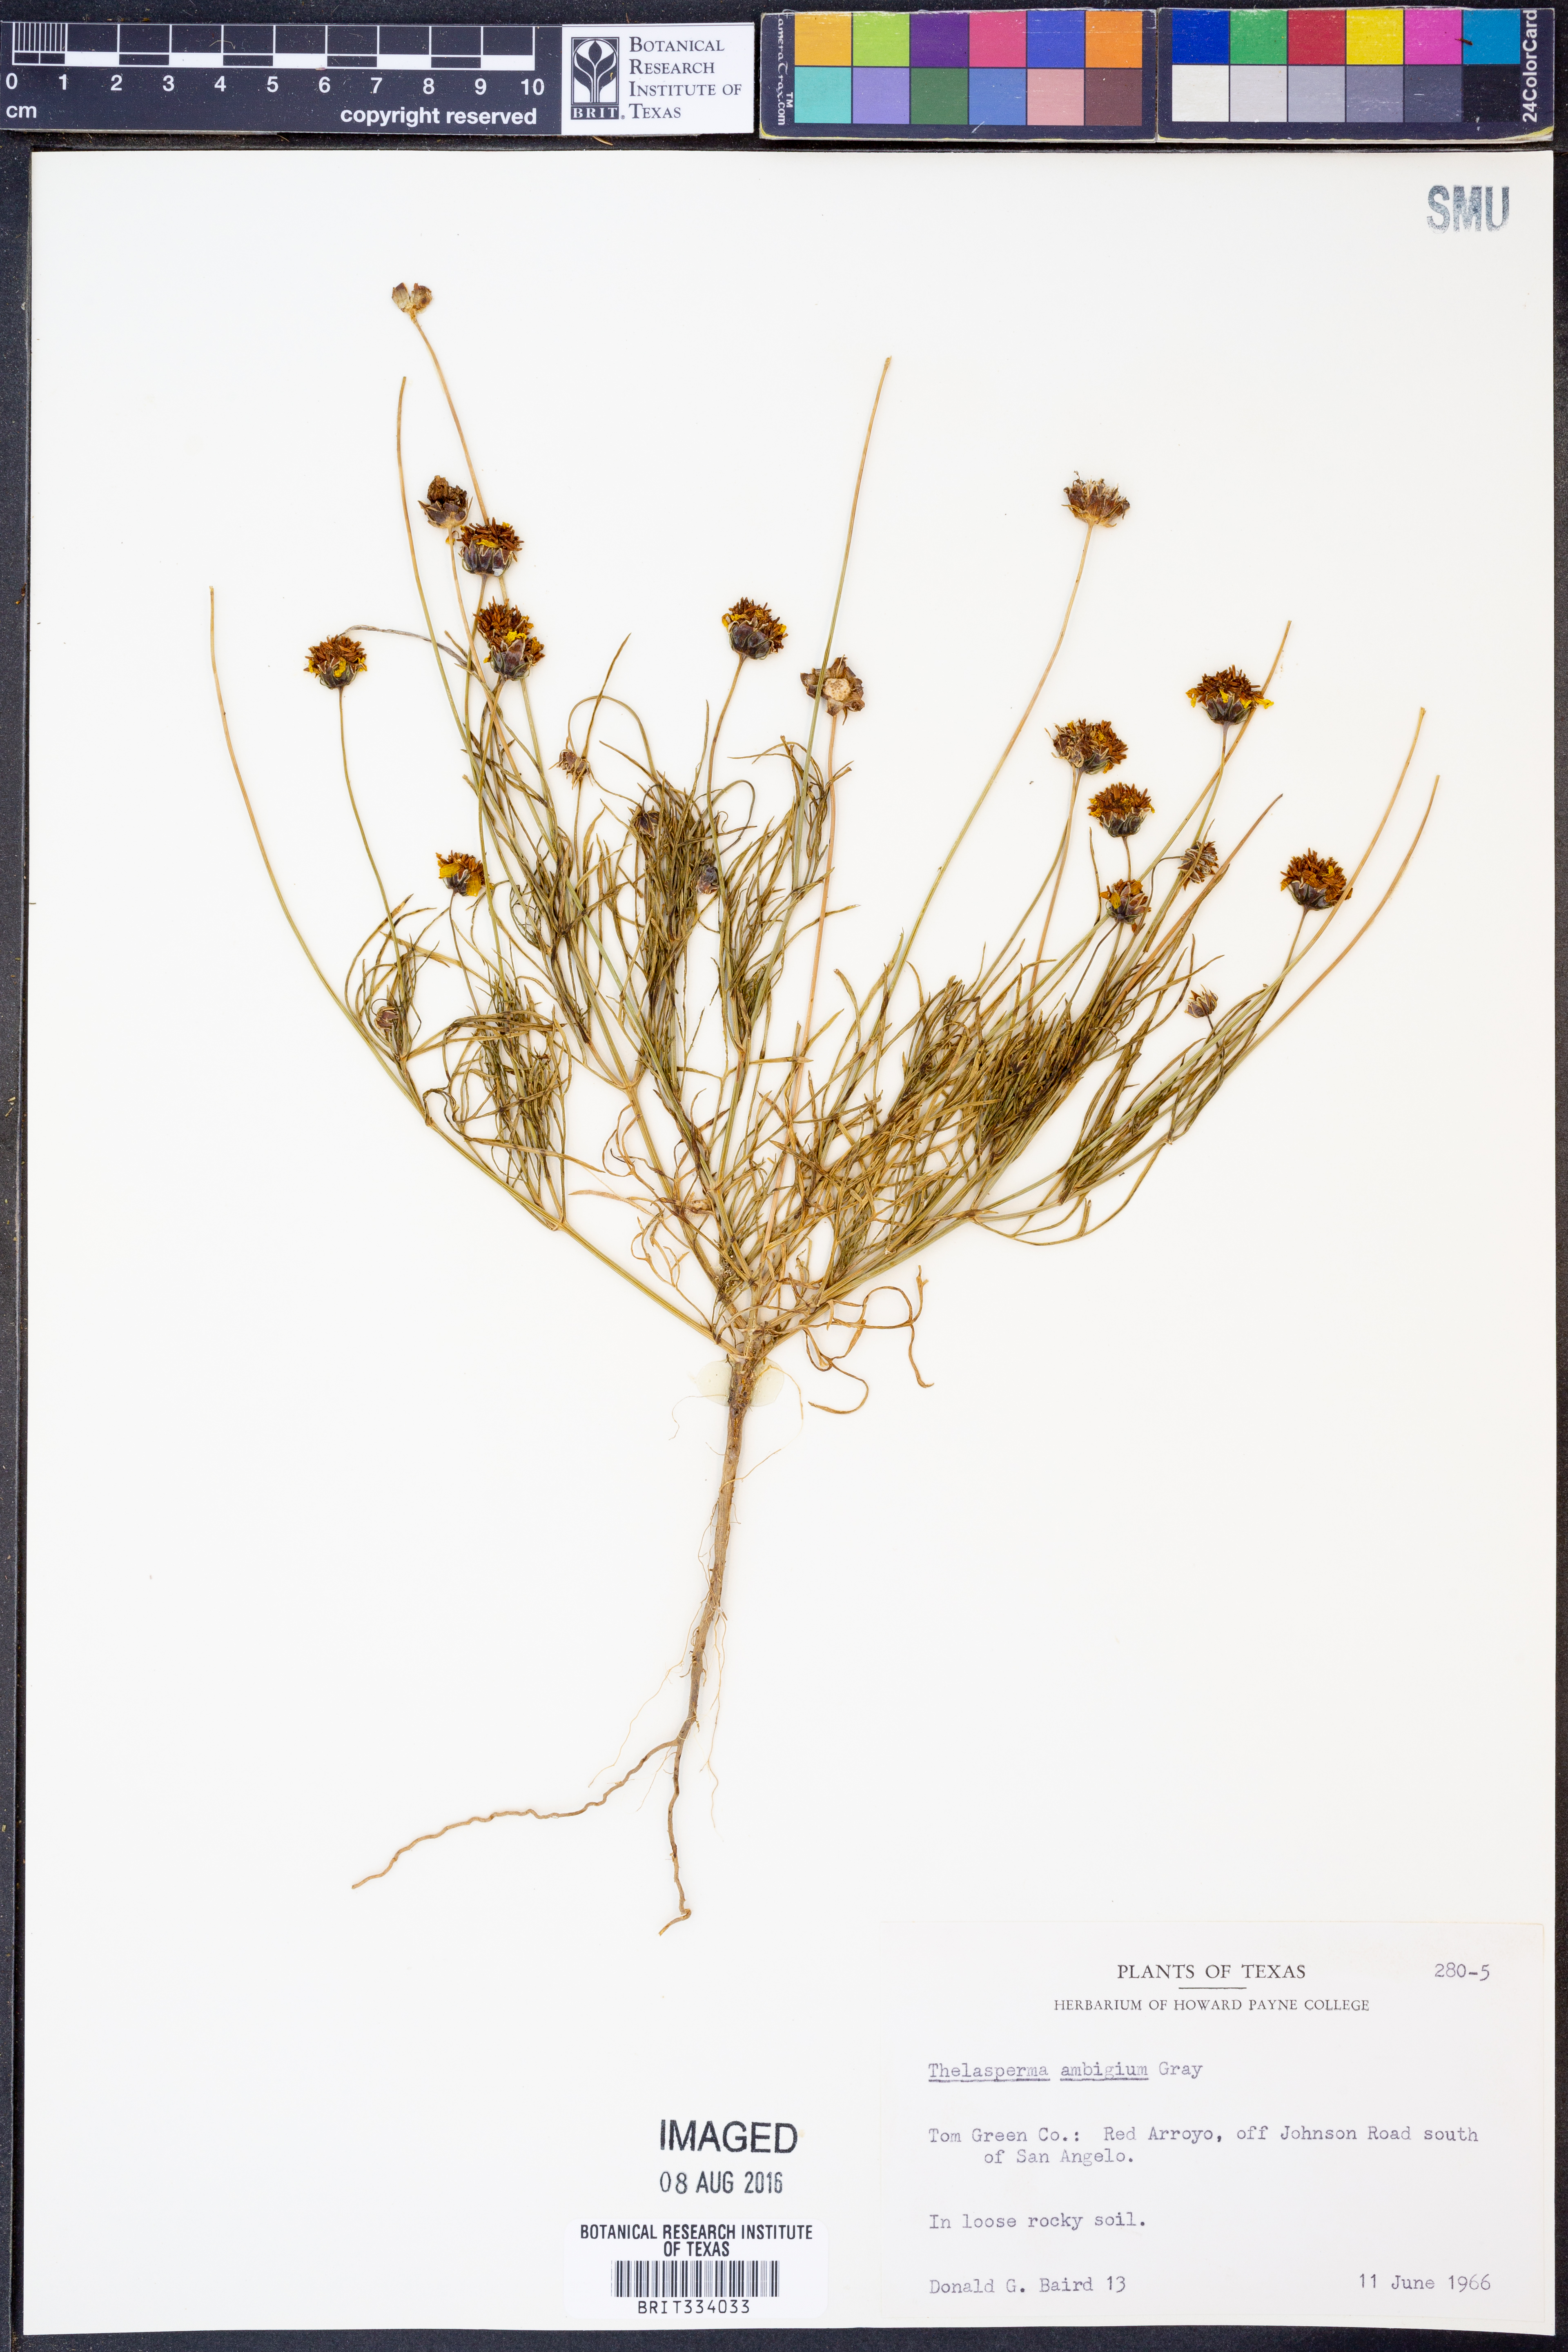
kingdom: Plantae
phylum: Tracheophyta
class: Magnoliopsida
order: Asterales
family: Asteraceae
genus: Thelesperma
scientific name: Thelesperma ambiguum
